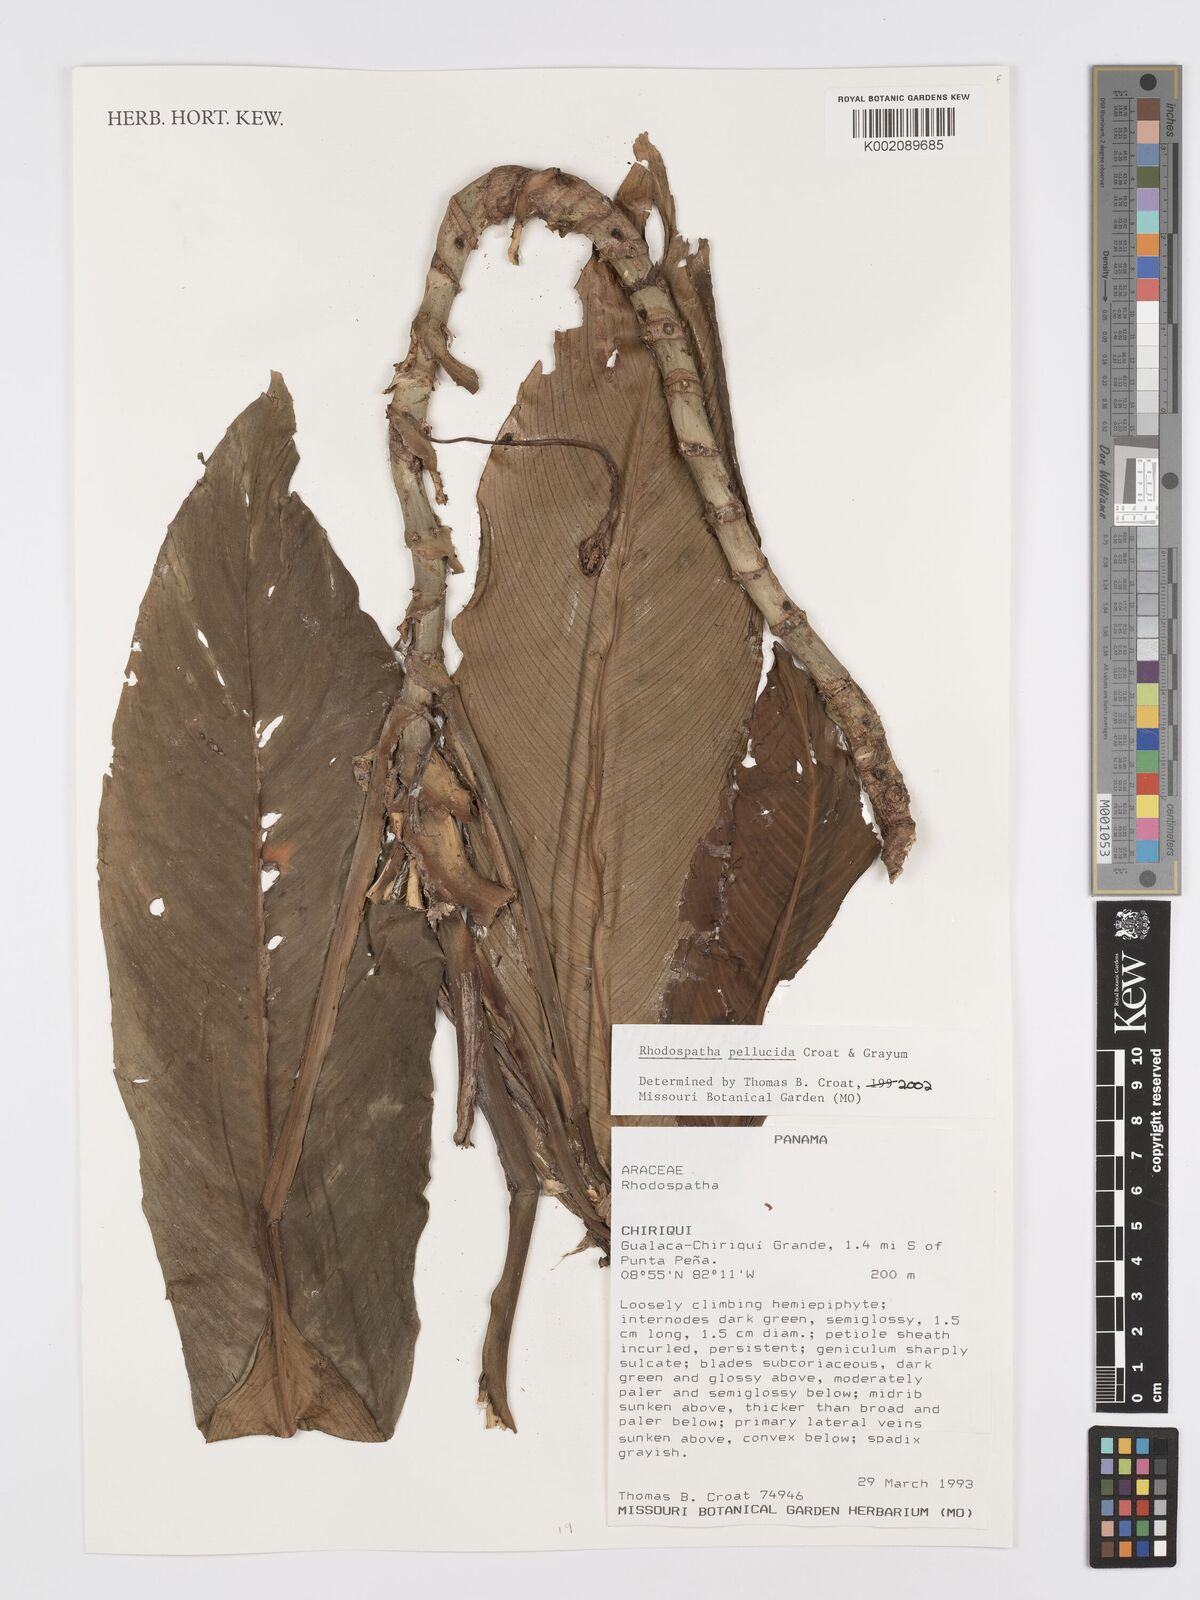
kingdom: Plantae
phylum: Tracheophyta
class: Liliopsida
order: Alismatales
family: Araceae
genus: Rhodospatha
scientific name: Rhodospatha pellucida
